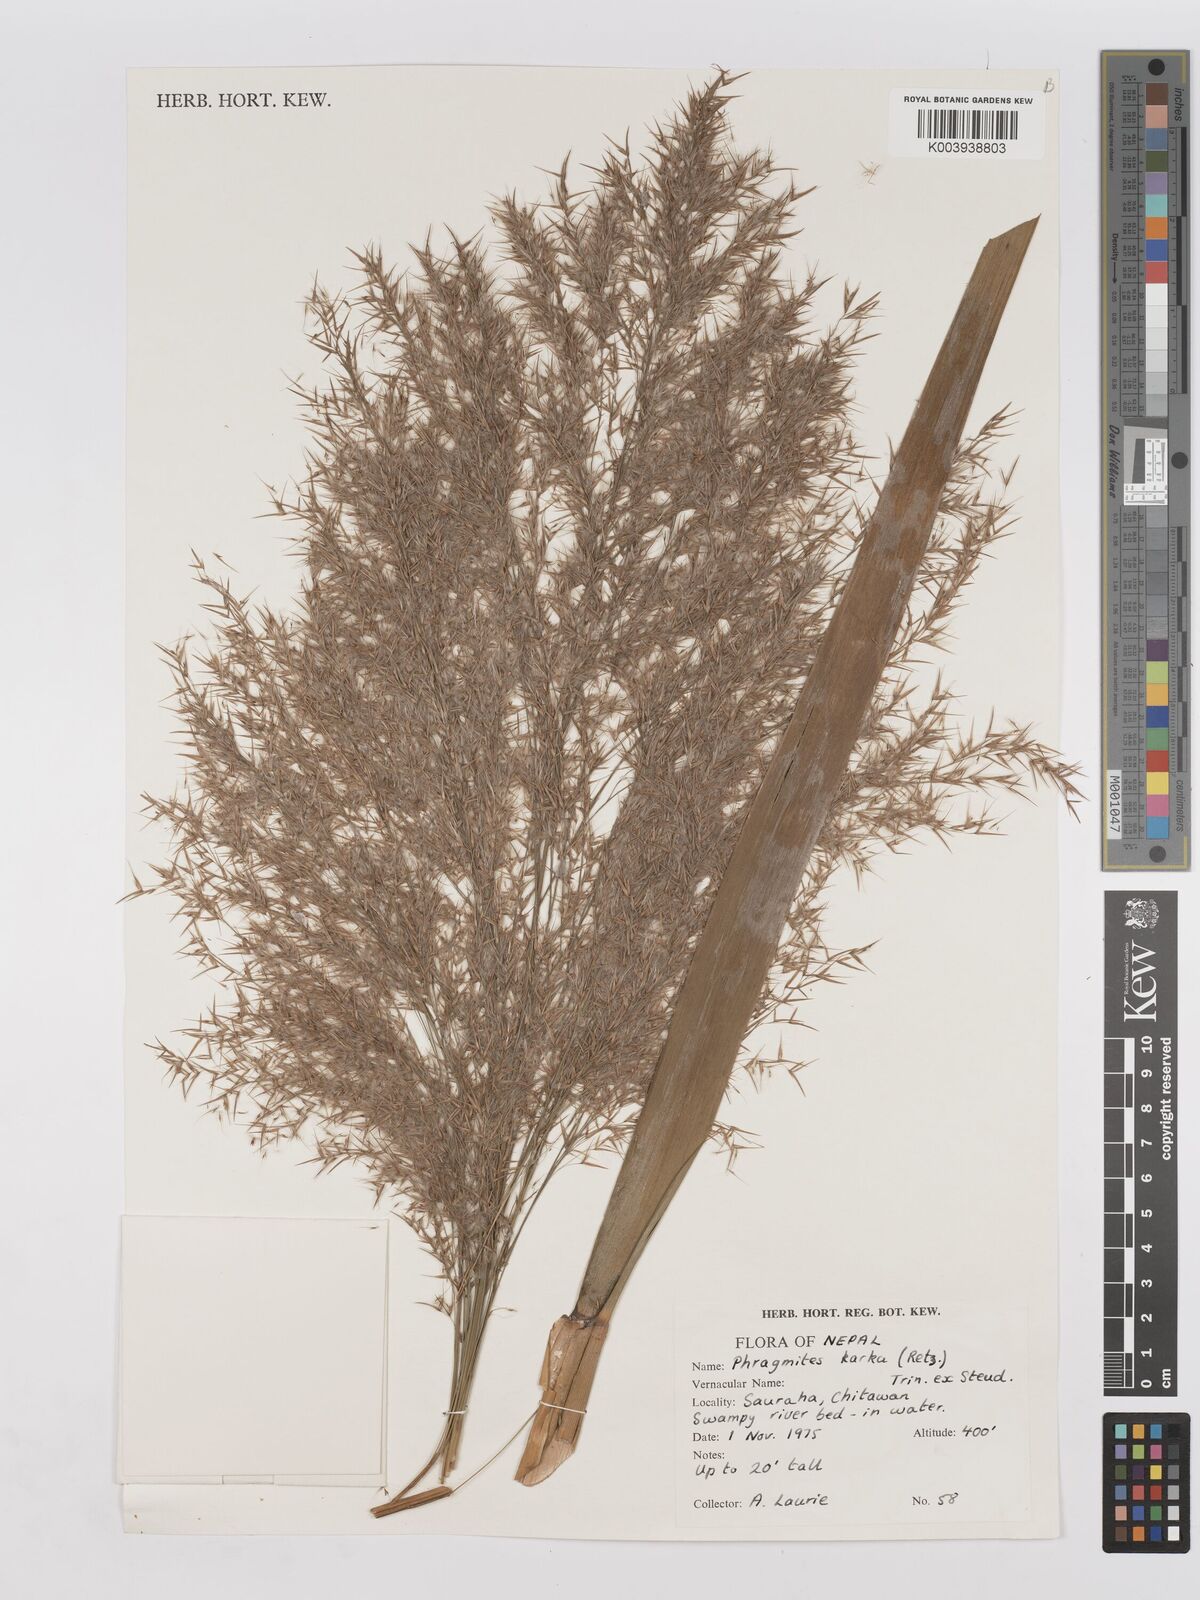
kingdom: Plantae
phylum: Tracheophyta
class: Liliopsida
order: Poales
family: Poaceae
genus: Phragmites
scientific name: Phragmites karka
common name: Tropical reed
